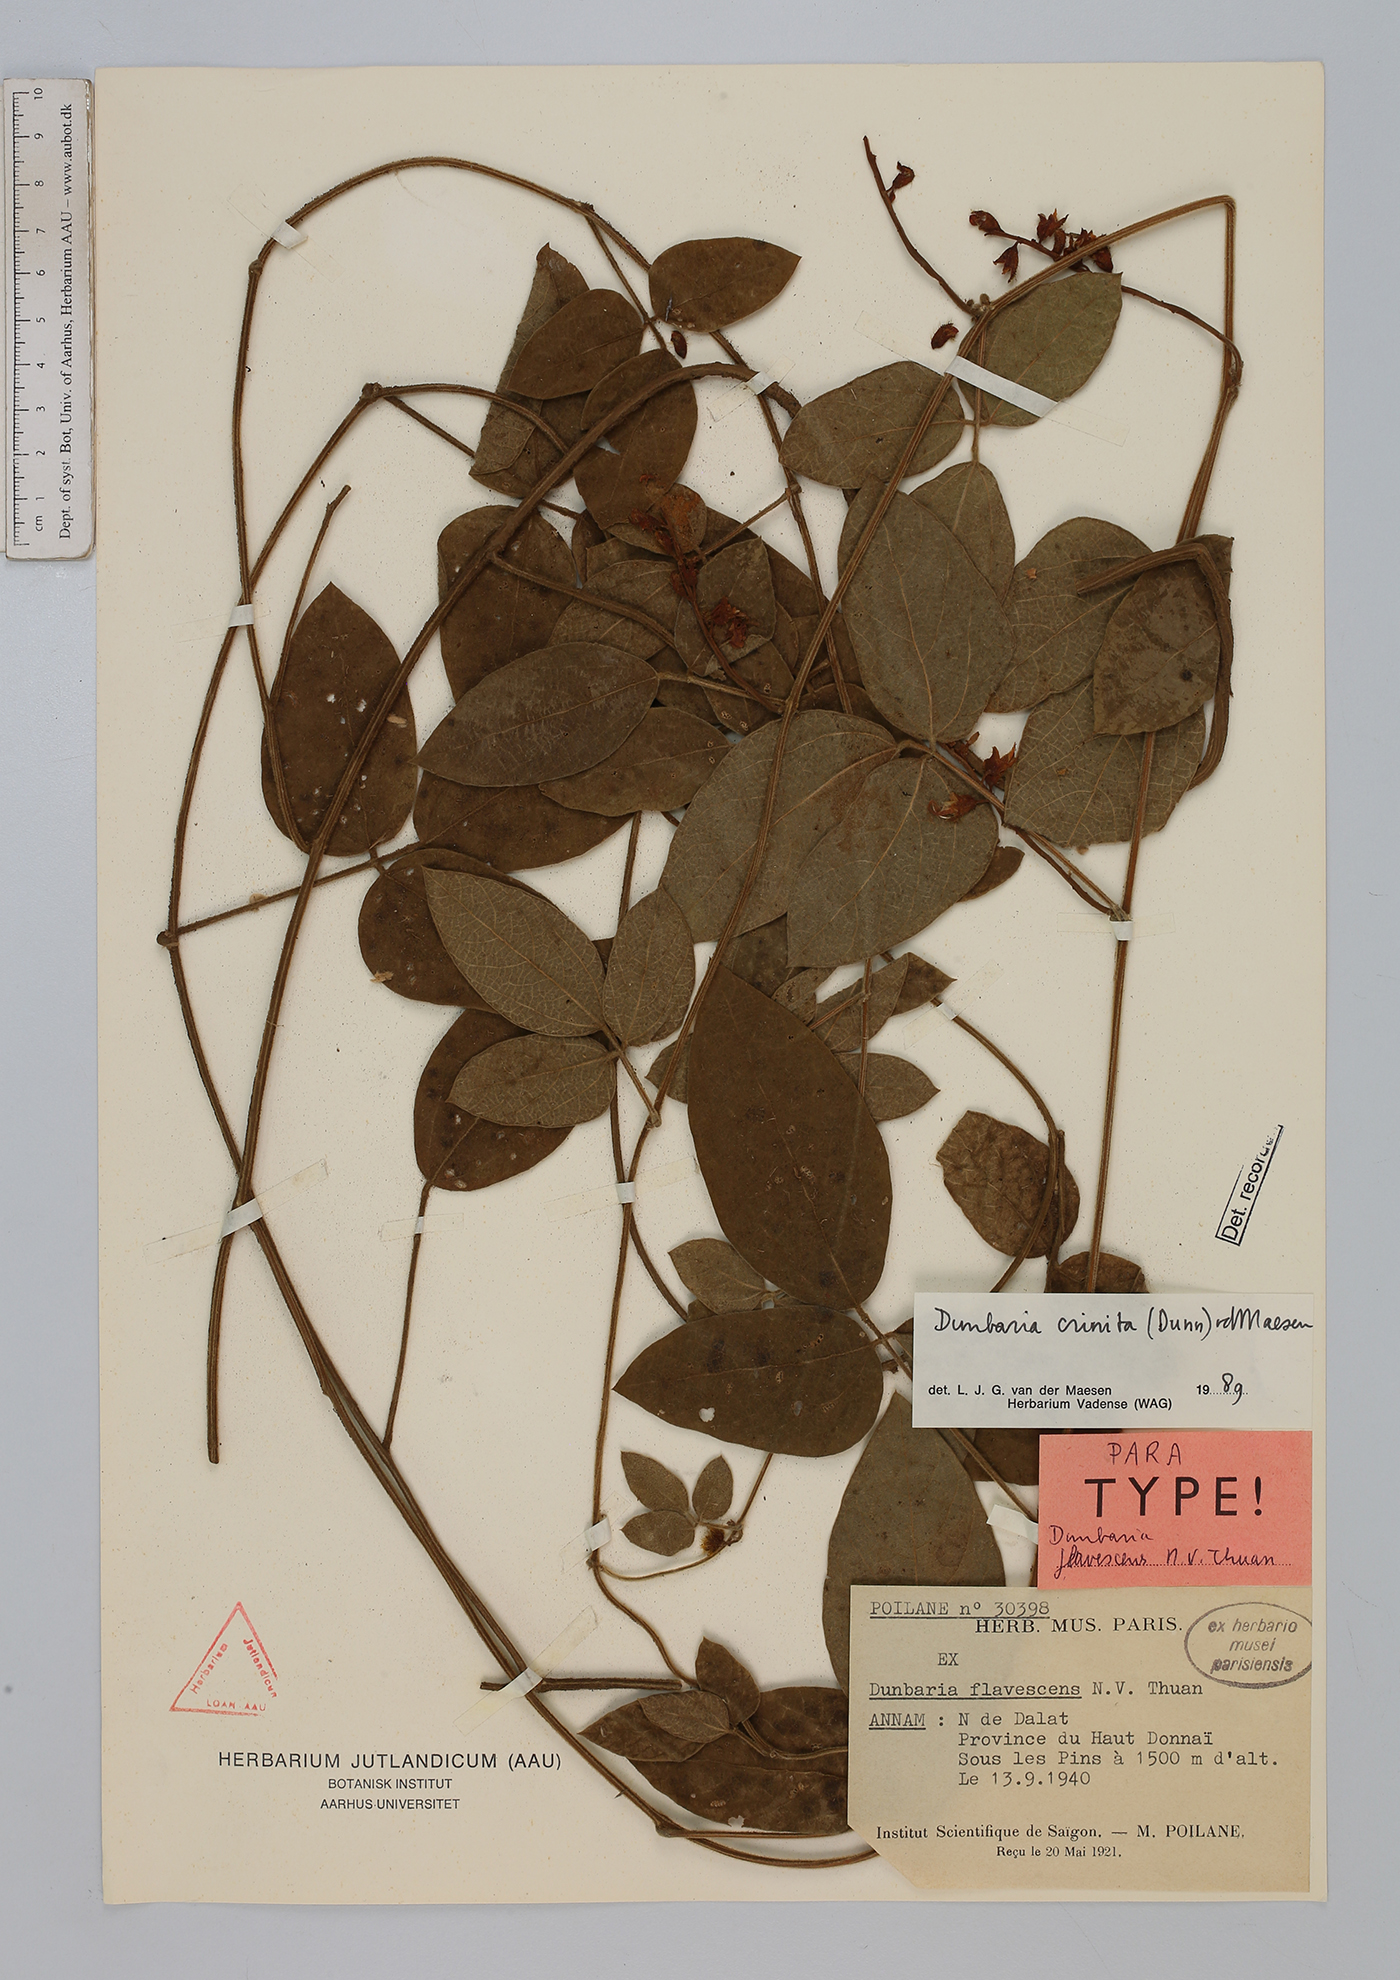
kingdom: Plantae
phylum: Tracheophyta
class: Magnoliopsida
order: Fabales
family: Fabaceae
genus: Dunbaria
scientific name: Dunbaria fusca
